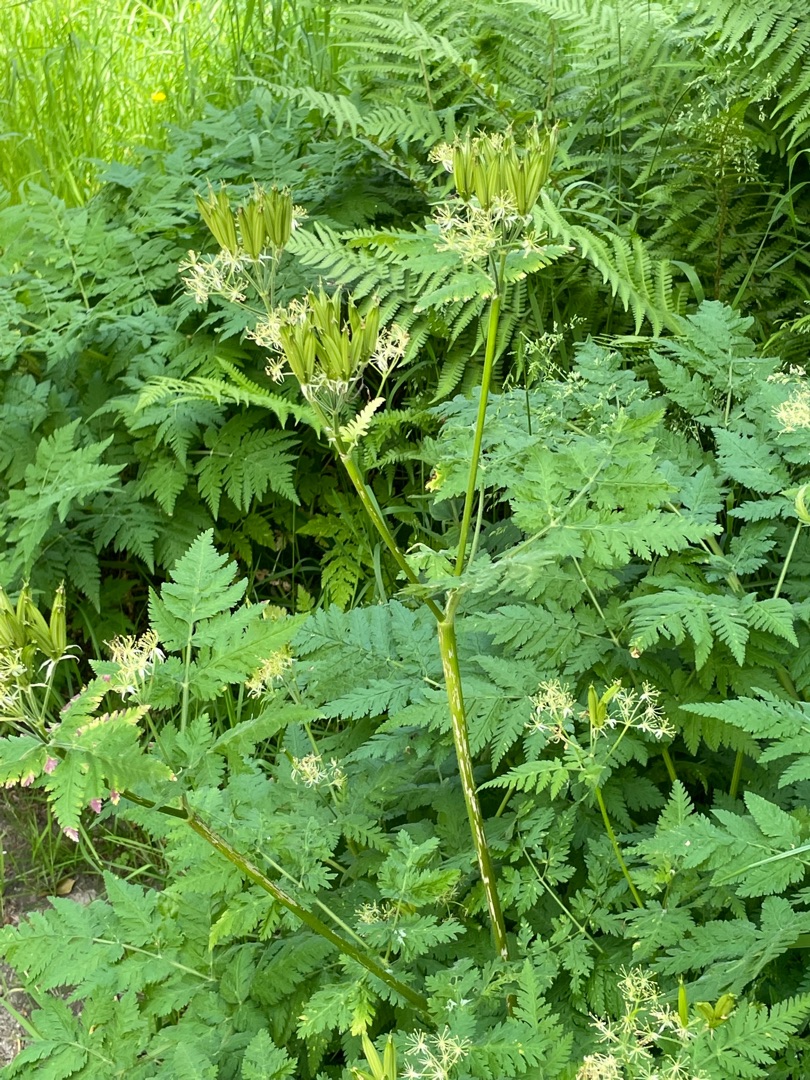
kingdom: Plantae
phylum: Tracheophyta
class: Magnoliopsida
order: Apiales
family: Apiaceae
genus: Myrrhis
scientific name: Myrrhis odorata
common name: Sødskærm
